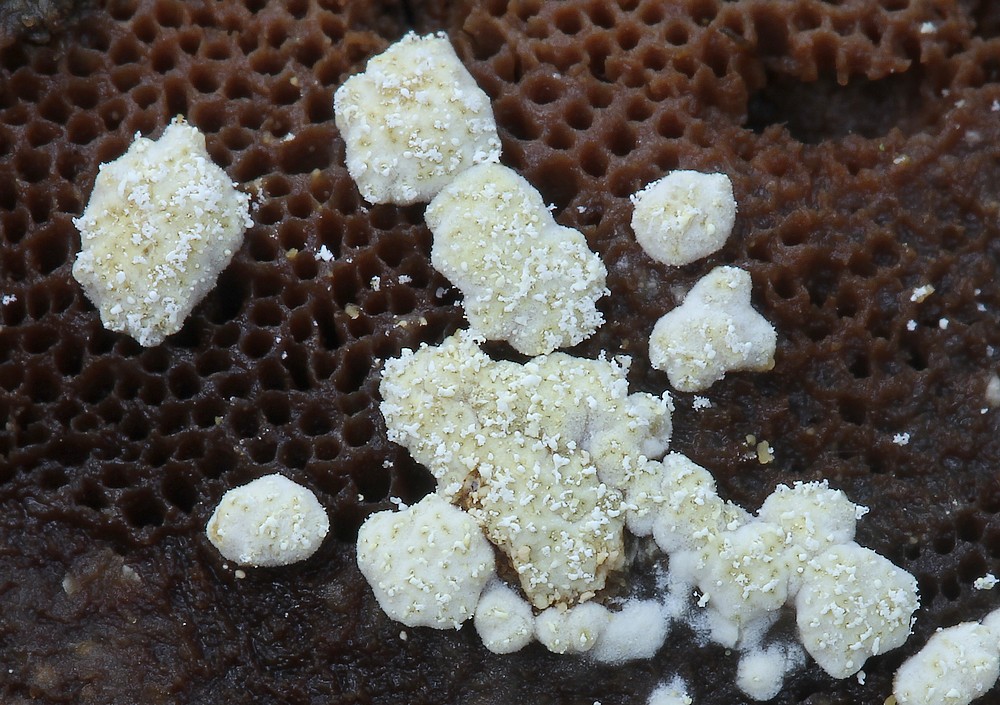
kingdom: Fungi
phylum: Ascomycota
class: Sordariomycetes
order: Hypocreales
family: Hypocreaceae
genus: Trichoderma
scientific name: Trichoderma pulvinatum
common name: snyltende kødkerne
